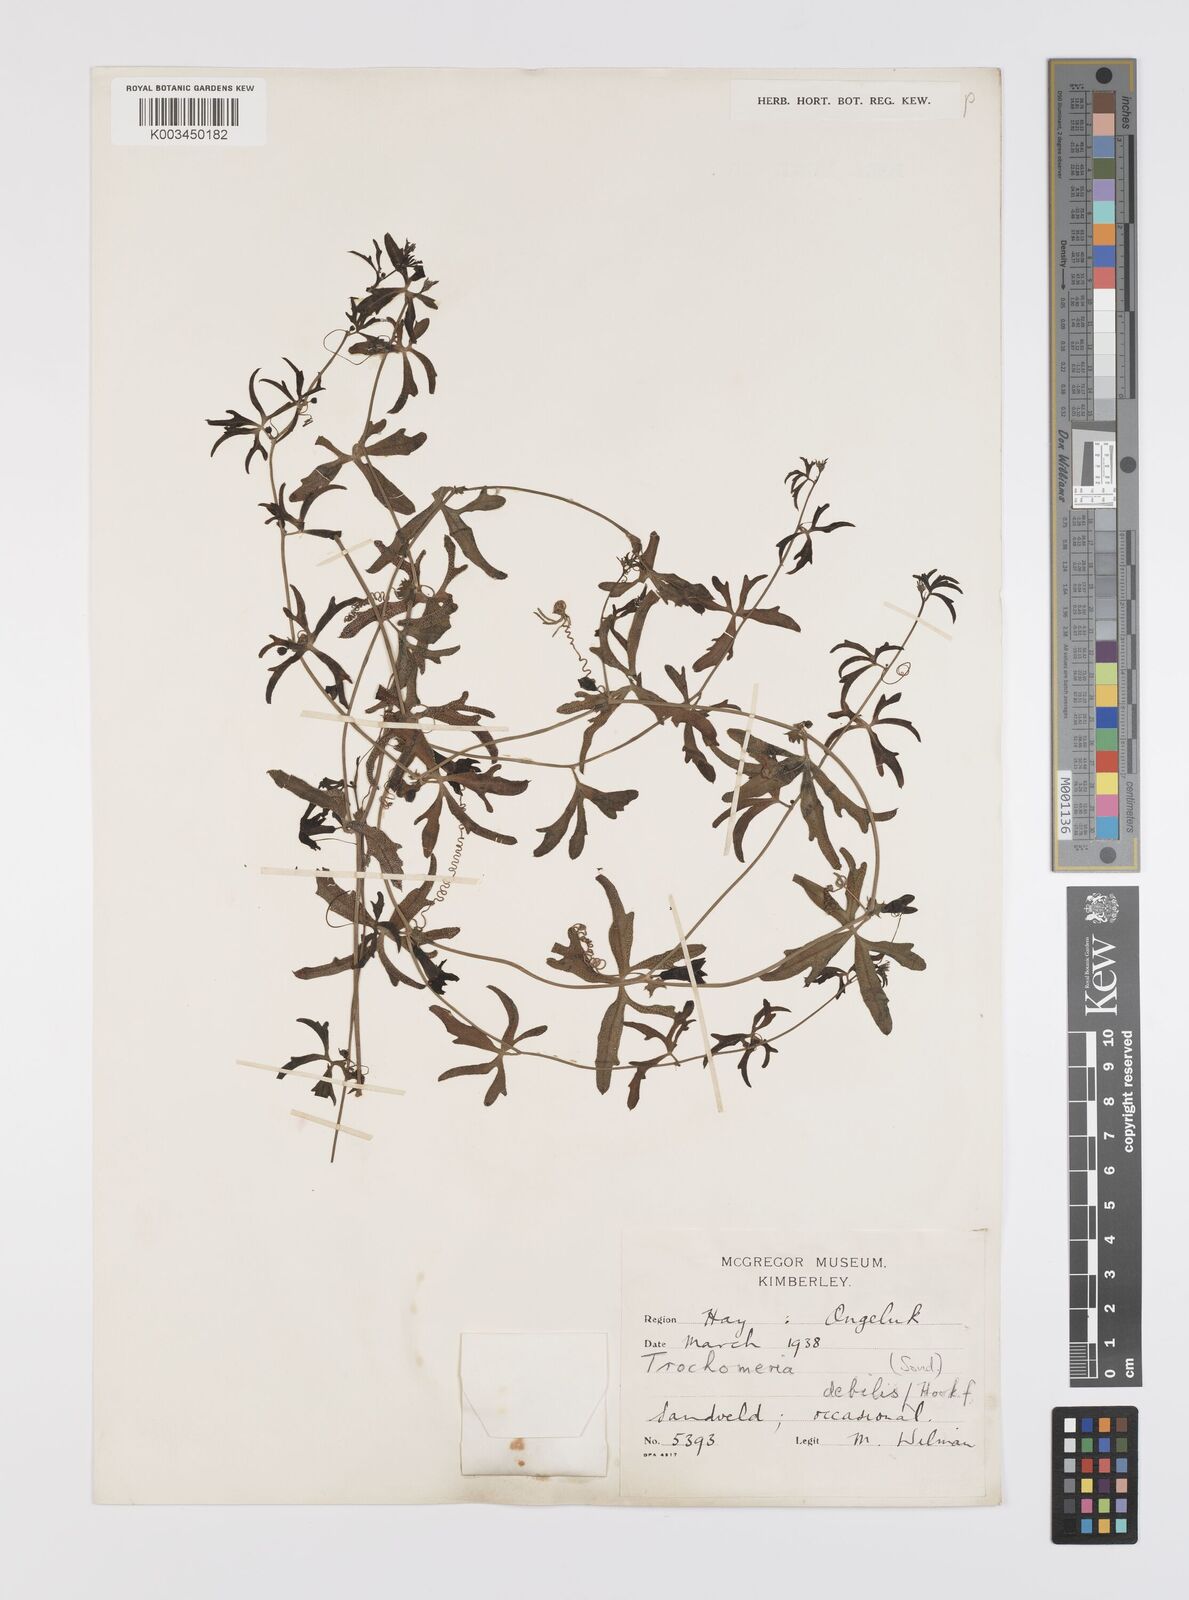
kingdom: Plantae
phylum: Tracheophyta
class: Magnoliopsida
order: Cucurbitales
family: Cucurbitaceae
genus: Trochomeria
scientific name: Trochomeria debilis
